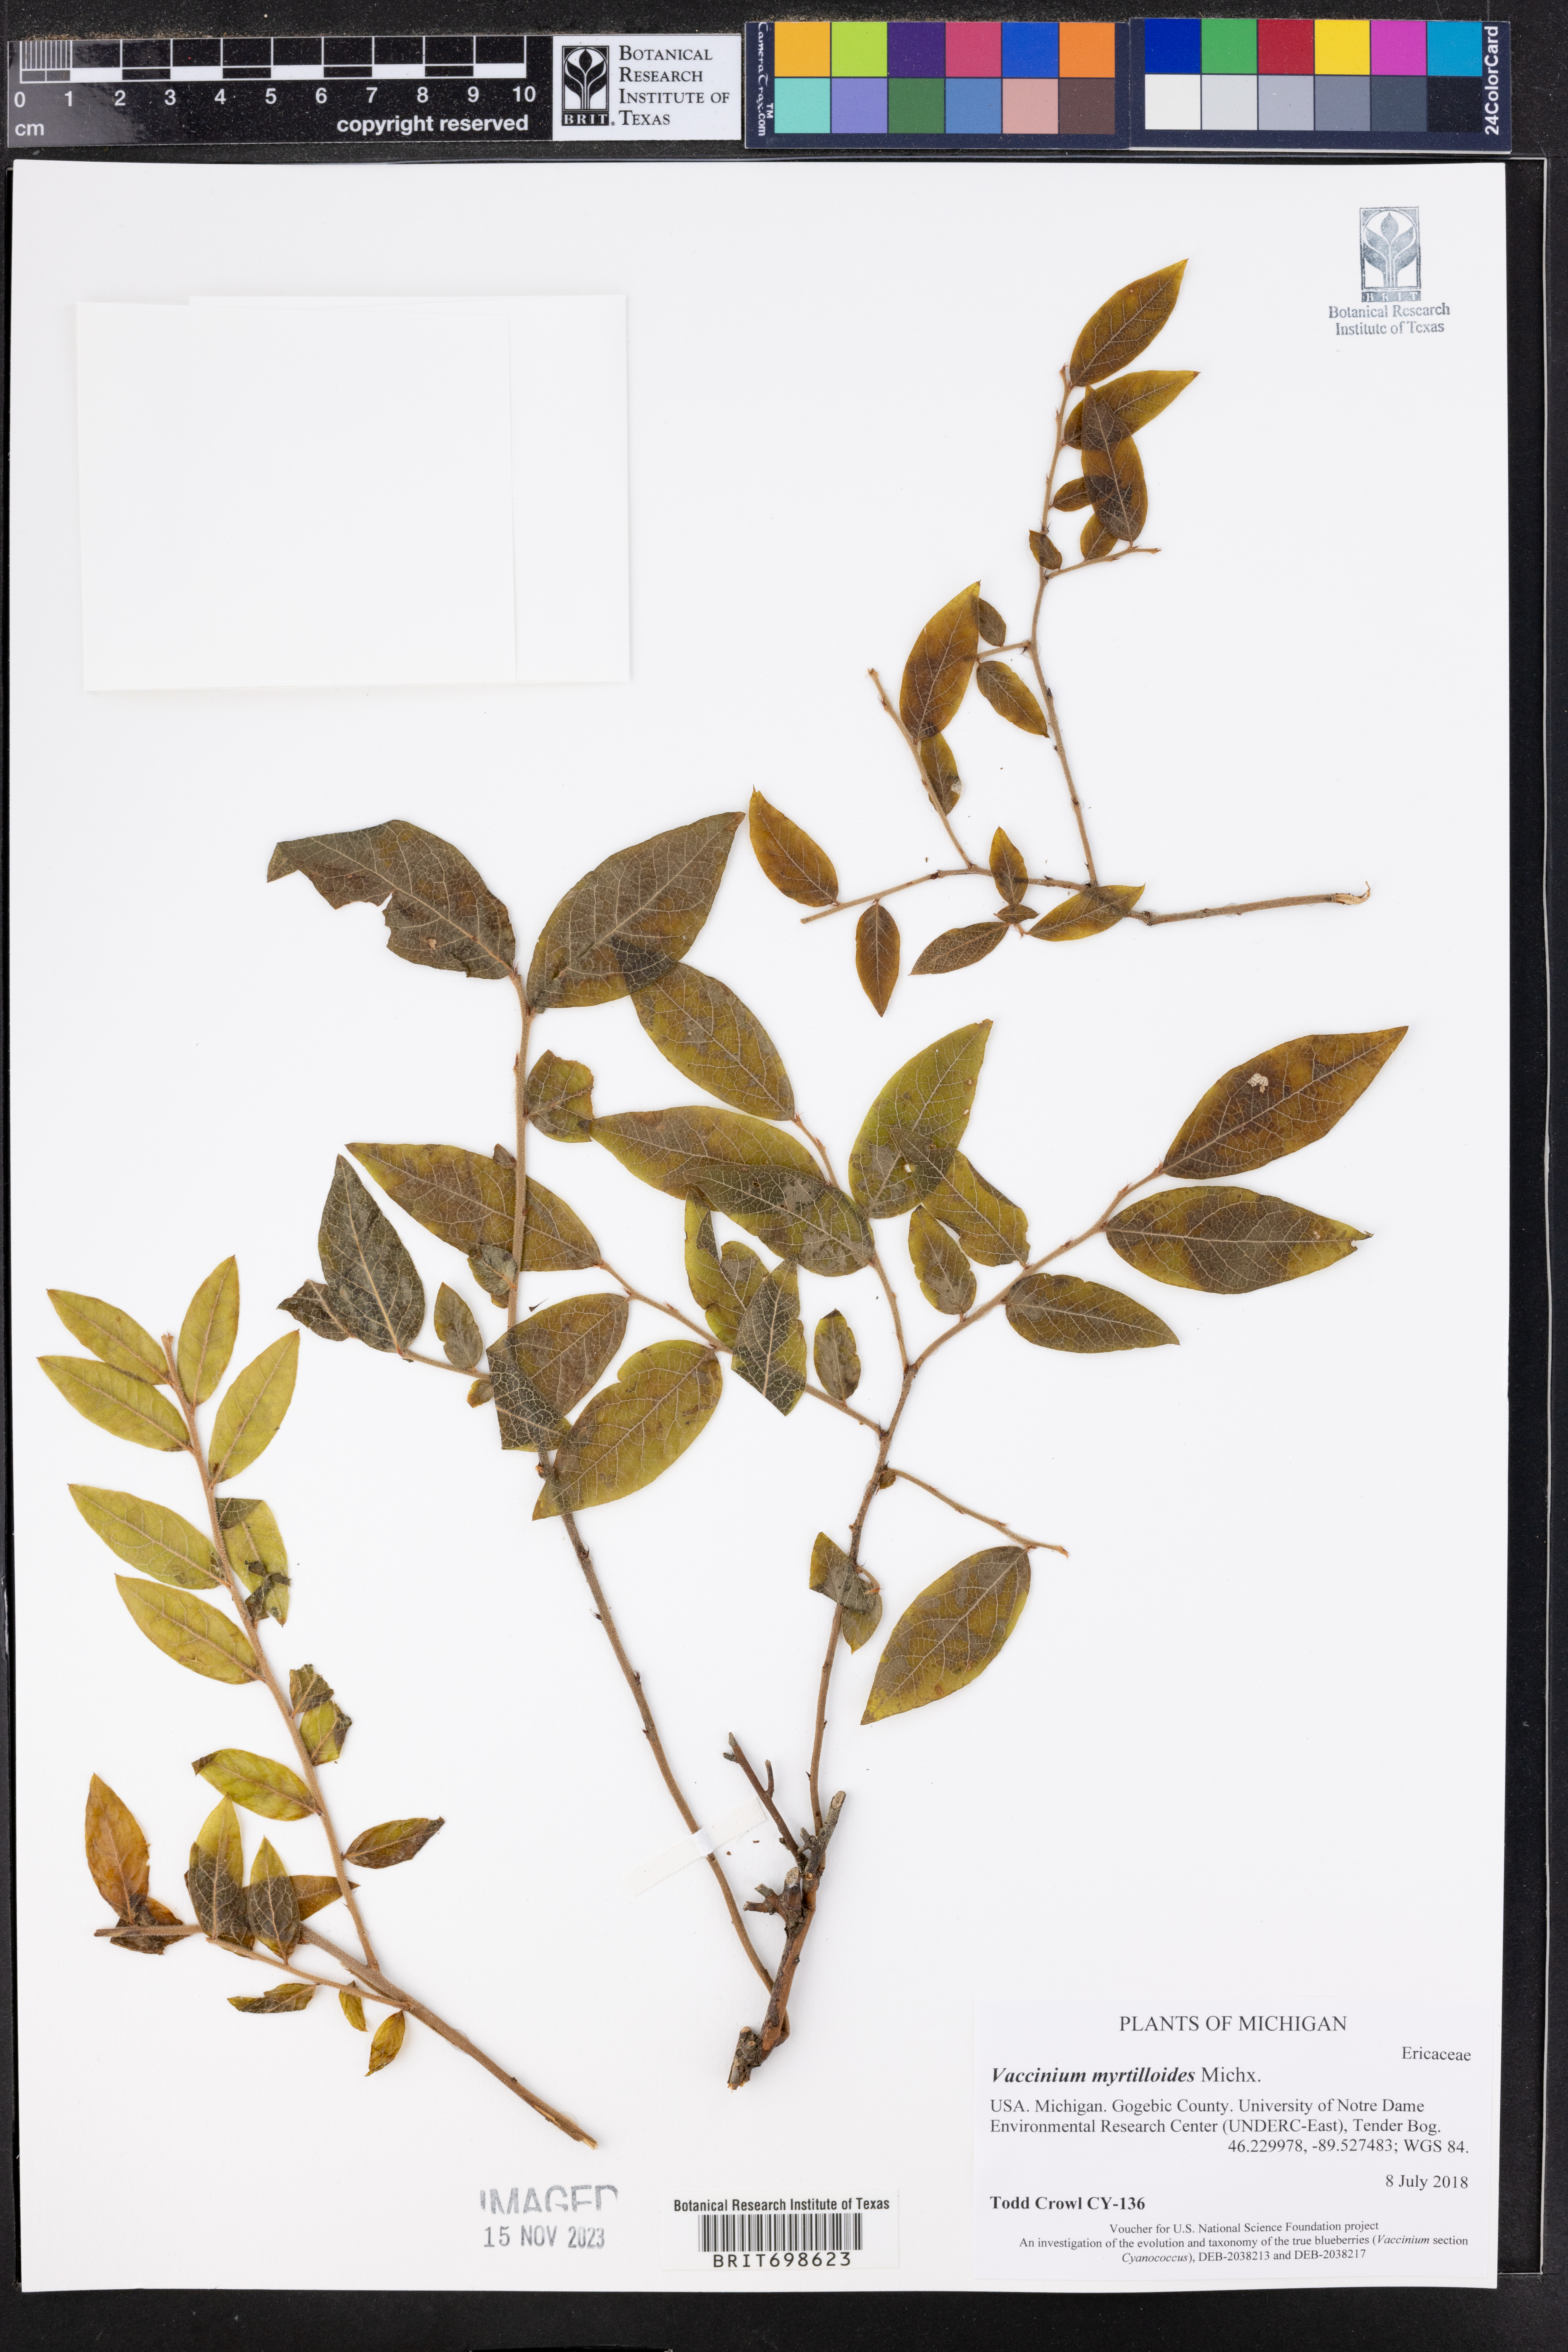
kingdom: Plantae
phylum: Tracheophyta
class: Magnoliopsida
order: Ericales
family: Ericaceae
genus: Vaccinium
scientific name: Vaccinium myrtilloides
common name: Canada blueberry
